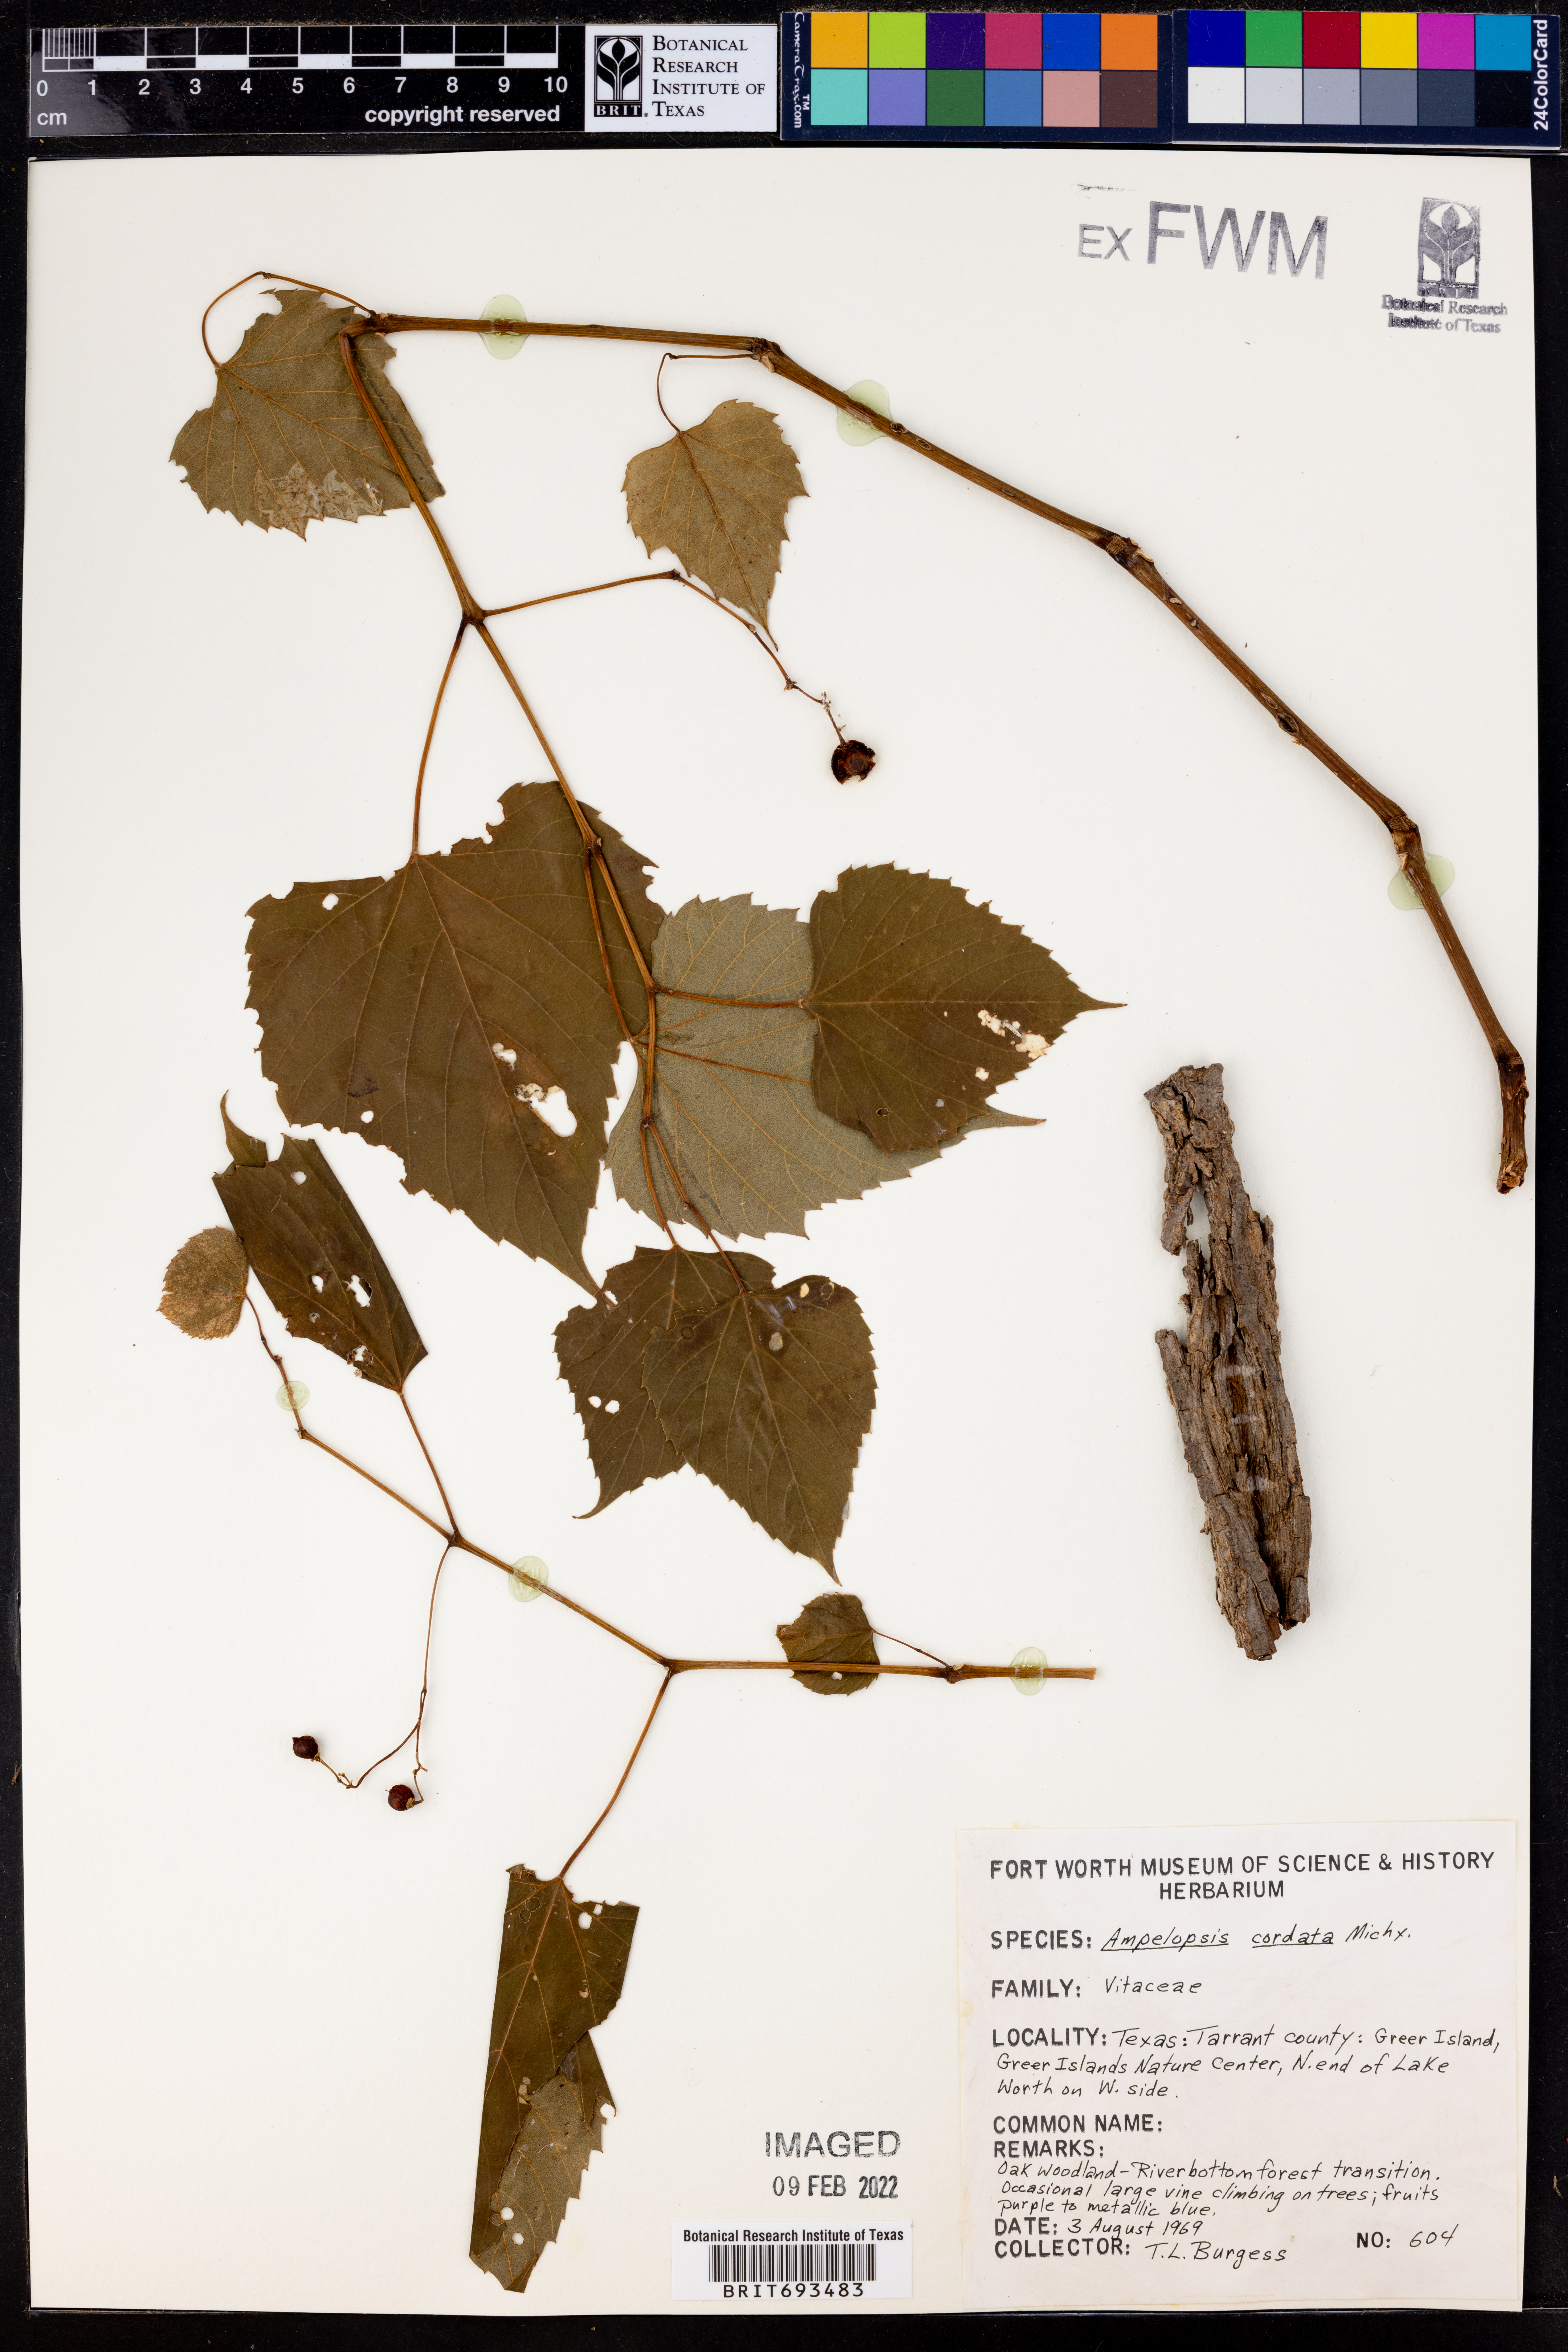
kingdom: Plantae
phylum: Tracheophyta
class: Magnoliopsida
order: Vitales
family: Vitaceae
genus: Ampelopsis
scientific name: Ampelopsis cordata
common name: Heart-leaf ampelopsis
